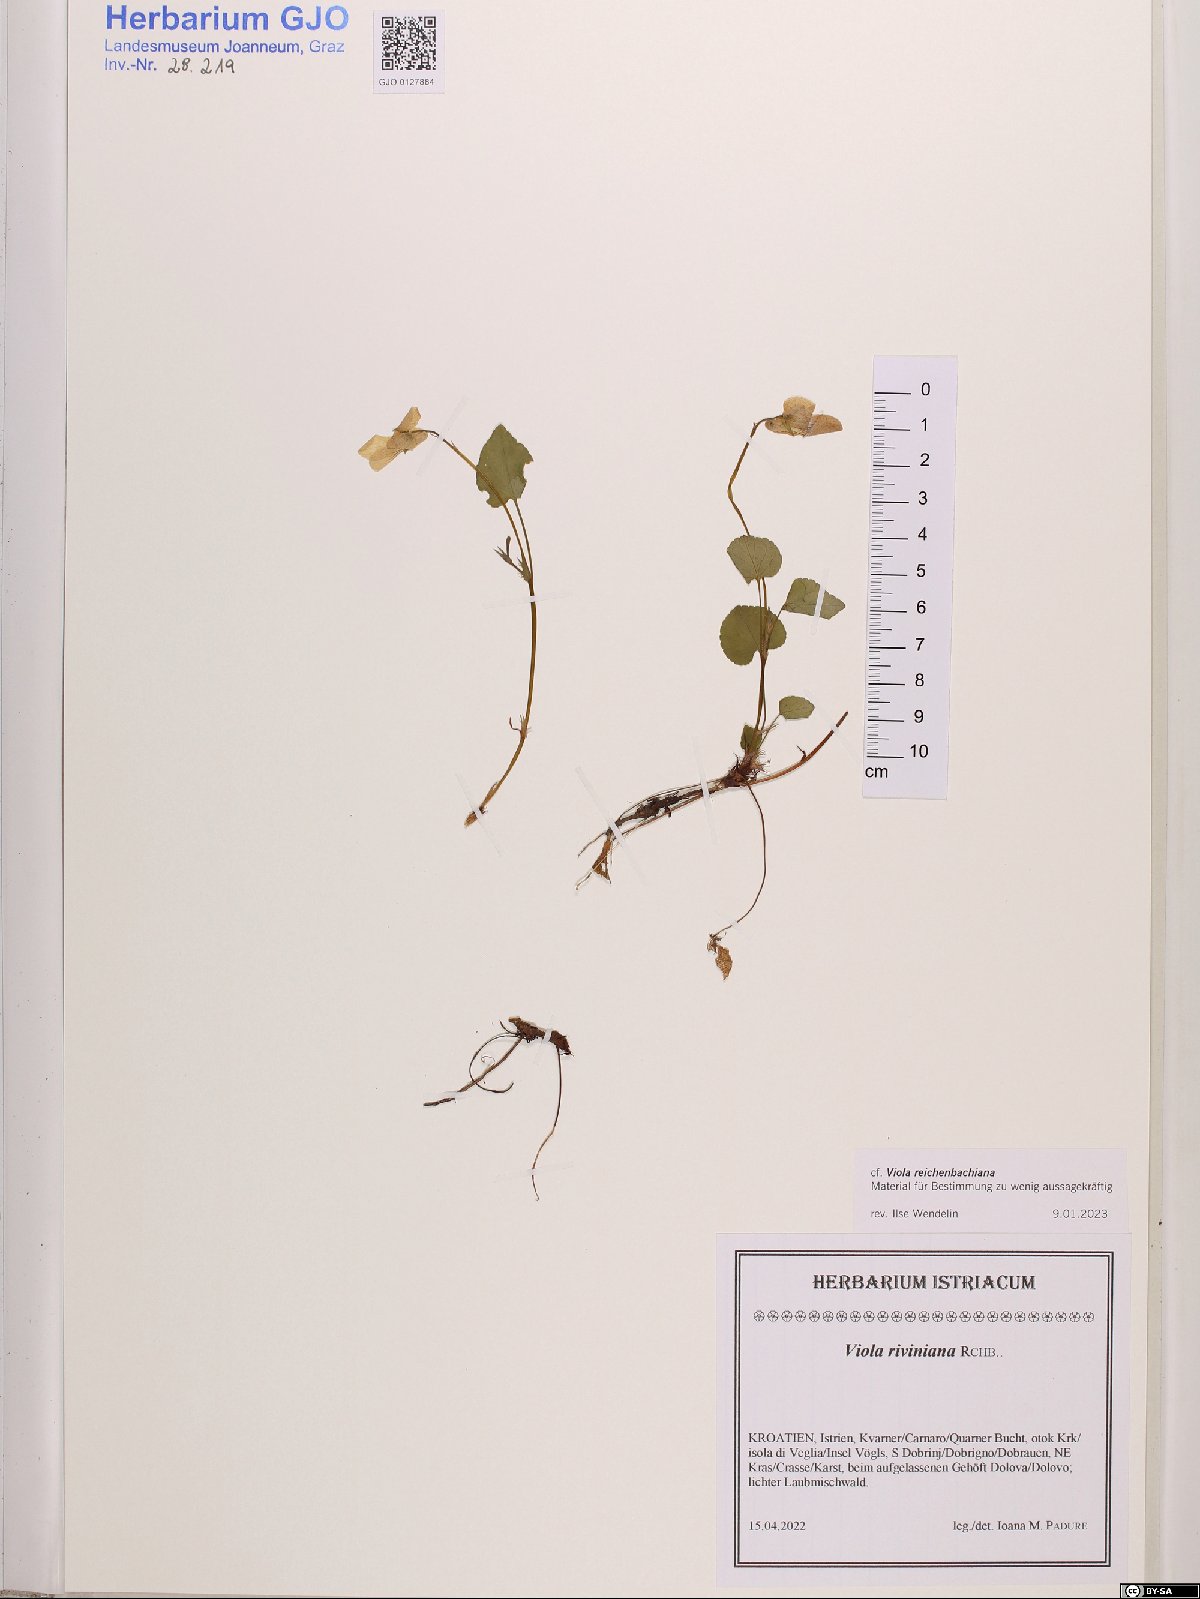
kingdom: Plantae
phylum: Tracheophyta
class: Magnoliopsida
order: Malpighiales
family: Violaceae
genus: Viola
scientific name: Viola reichenbachiana
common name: Early dog-violet
